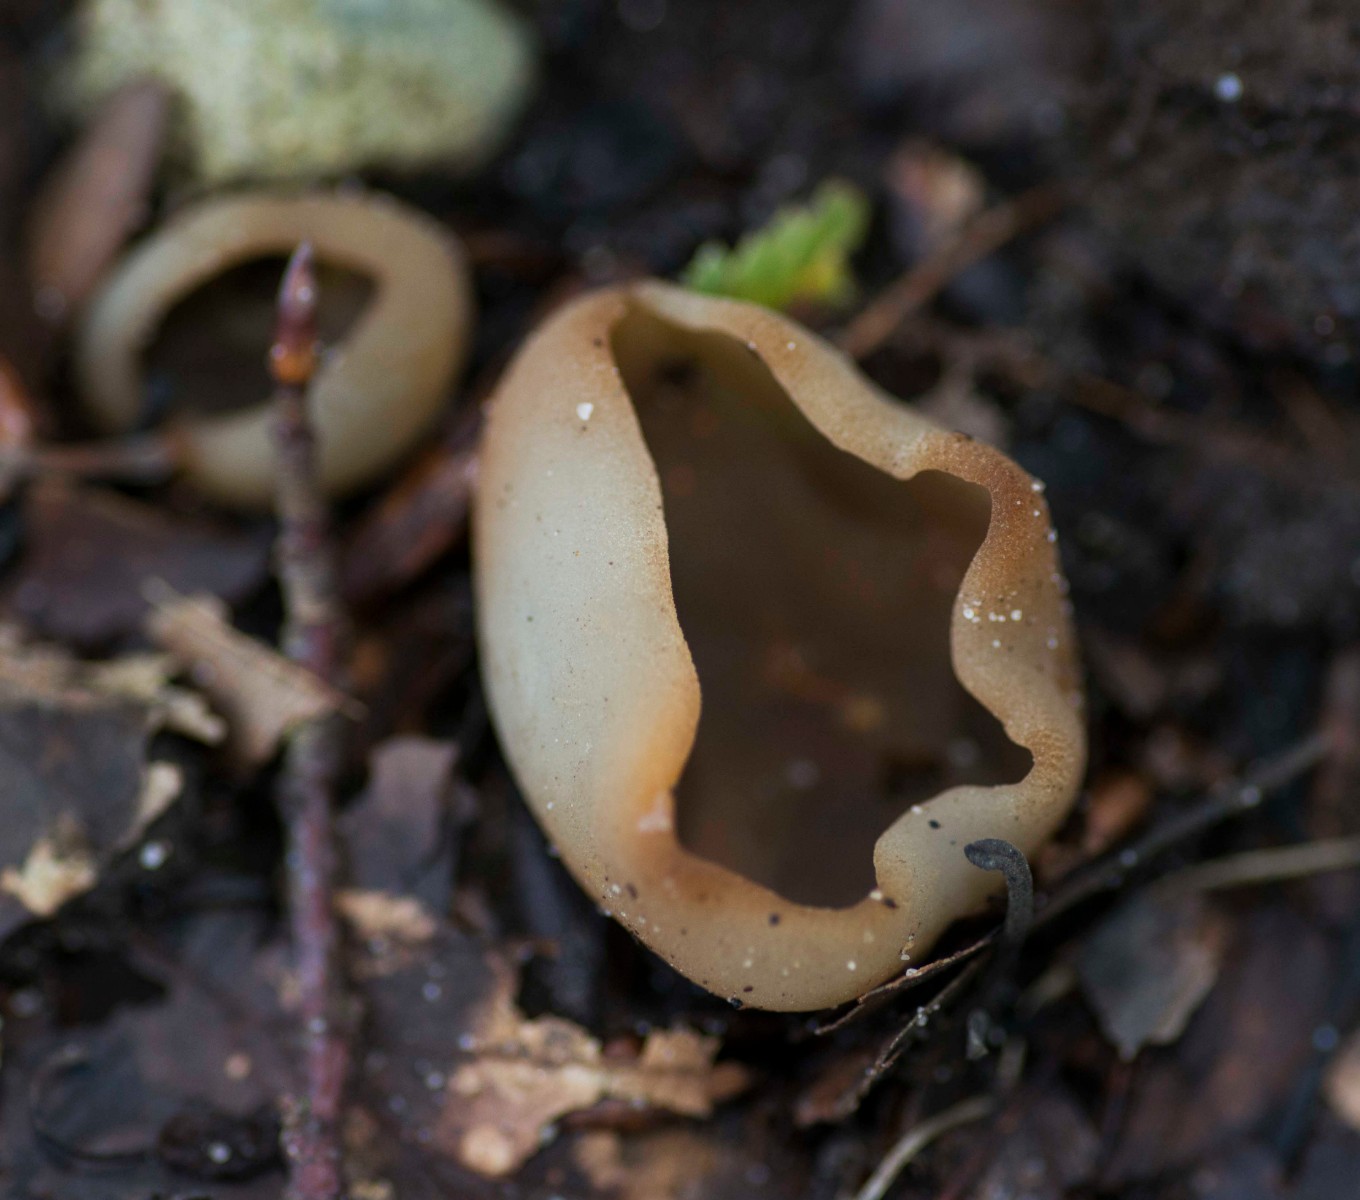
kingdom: Fungi
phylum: Ascomycota
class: Pezizomycetes
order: Pezizales
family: Pezizaceae
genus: Peziza
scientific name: Peziza
